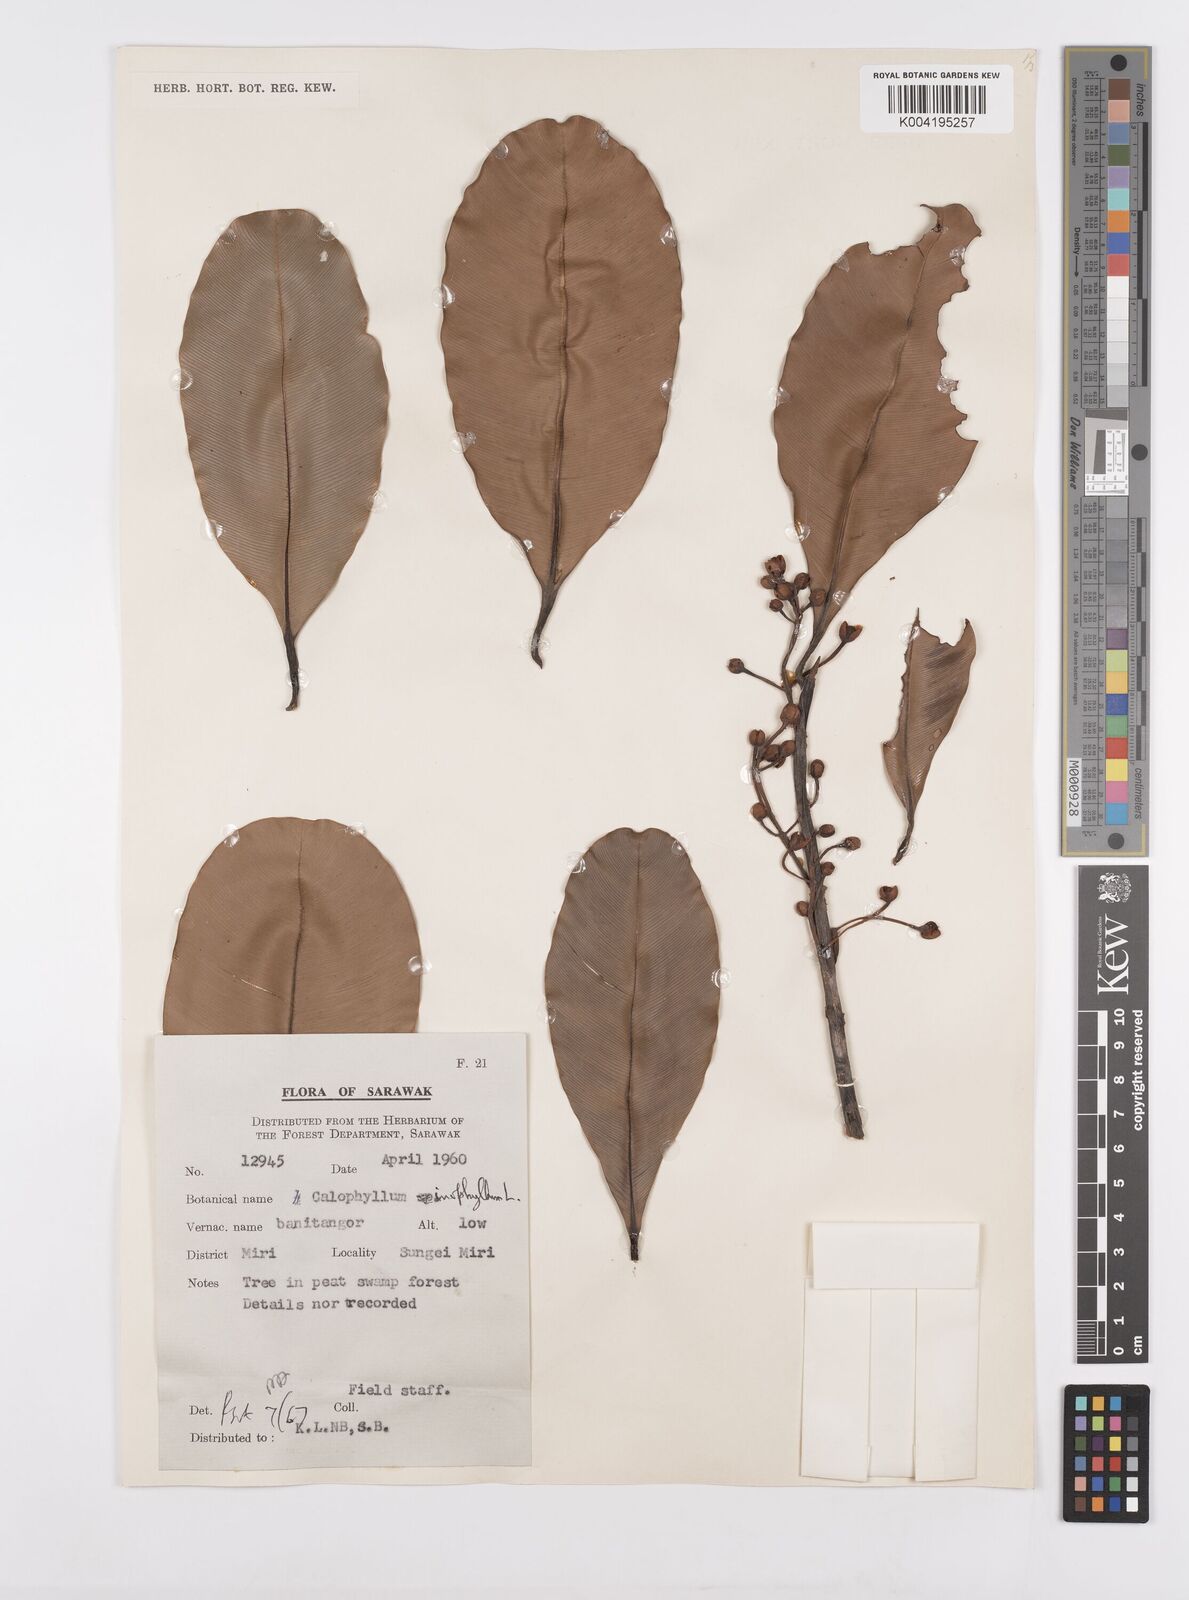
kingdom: Plantae
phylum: Tracheophyta
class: Magnoliopsida
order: Malpighiales
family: Calophyllaceae
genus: Calophyllum
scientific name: Calophyllum inophyllum
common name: Alexandrian laurel
